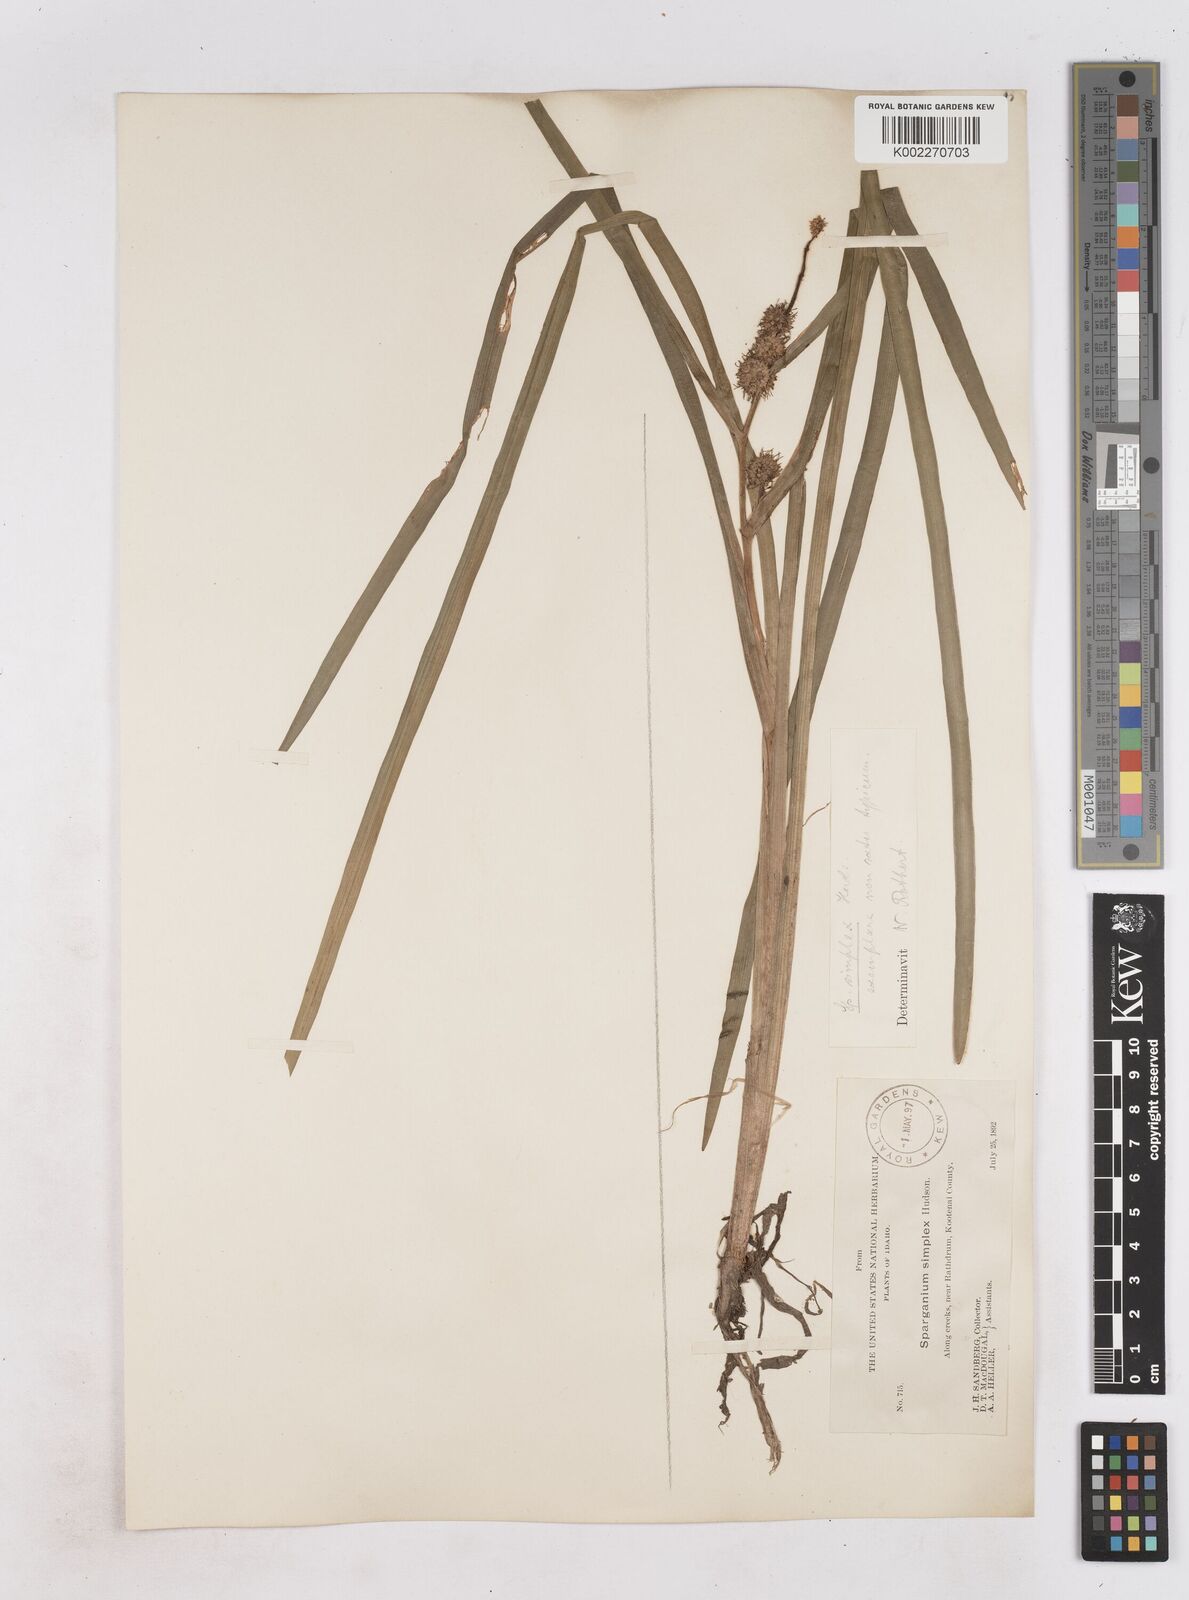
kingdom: Plantae
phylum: Tracheophyta
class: Liliopsida
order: Poales
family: Typhaceae
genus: Sparganium
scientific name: Sparganium emersum
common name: Unbranched bur-reed
